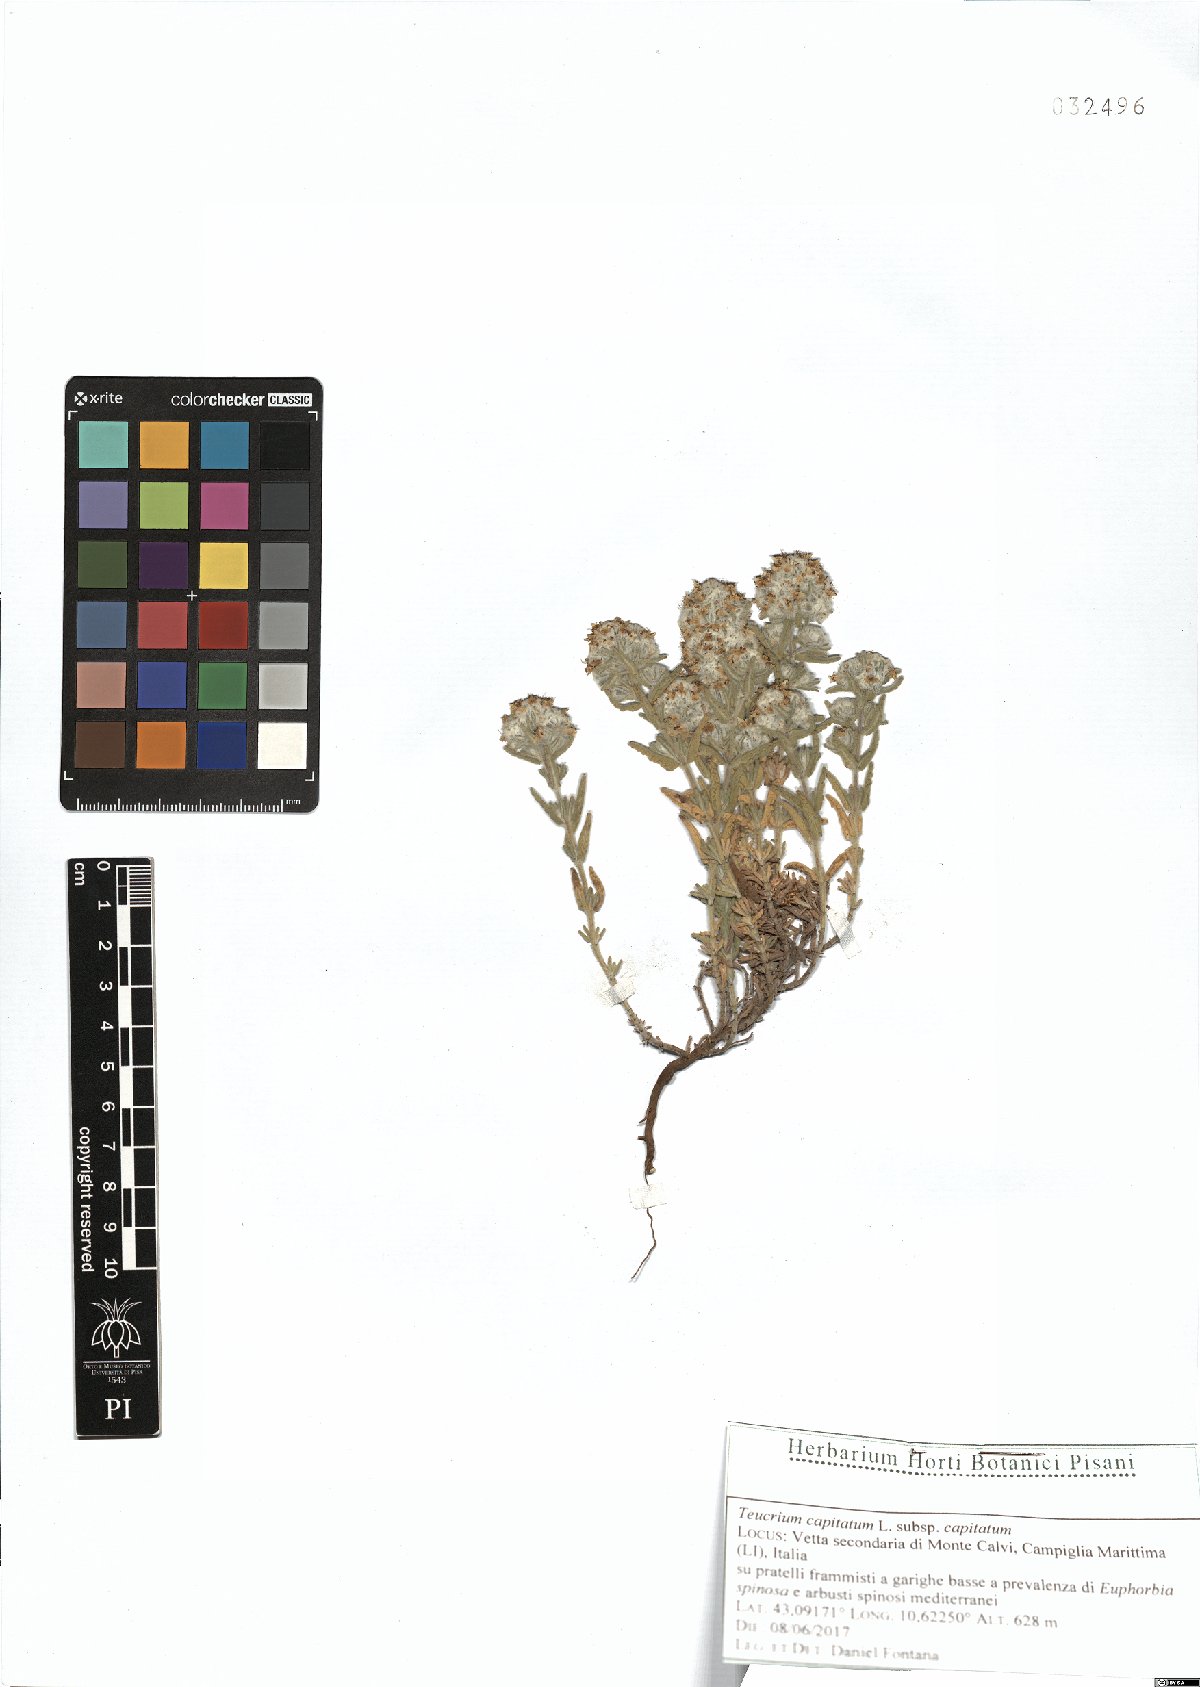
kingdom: Plantae
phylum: Tracheophyta
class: Magnoliopsida
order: Lamiales
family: Lamiaceae
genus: Teucrium
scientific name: Teucrium capitatum
